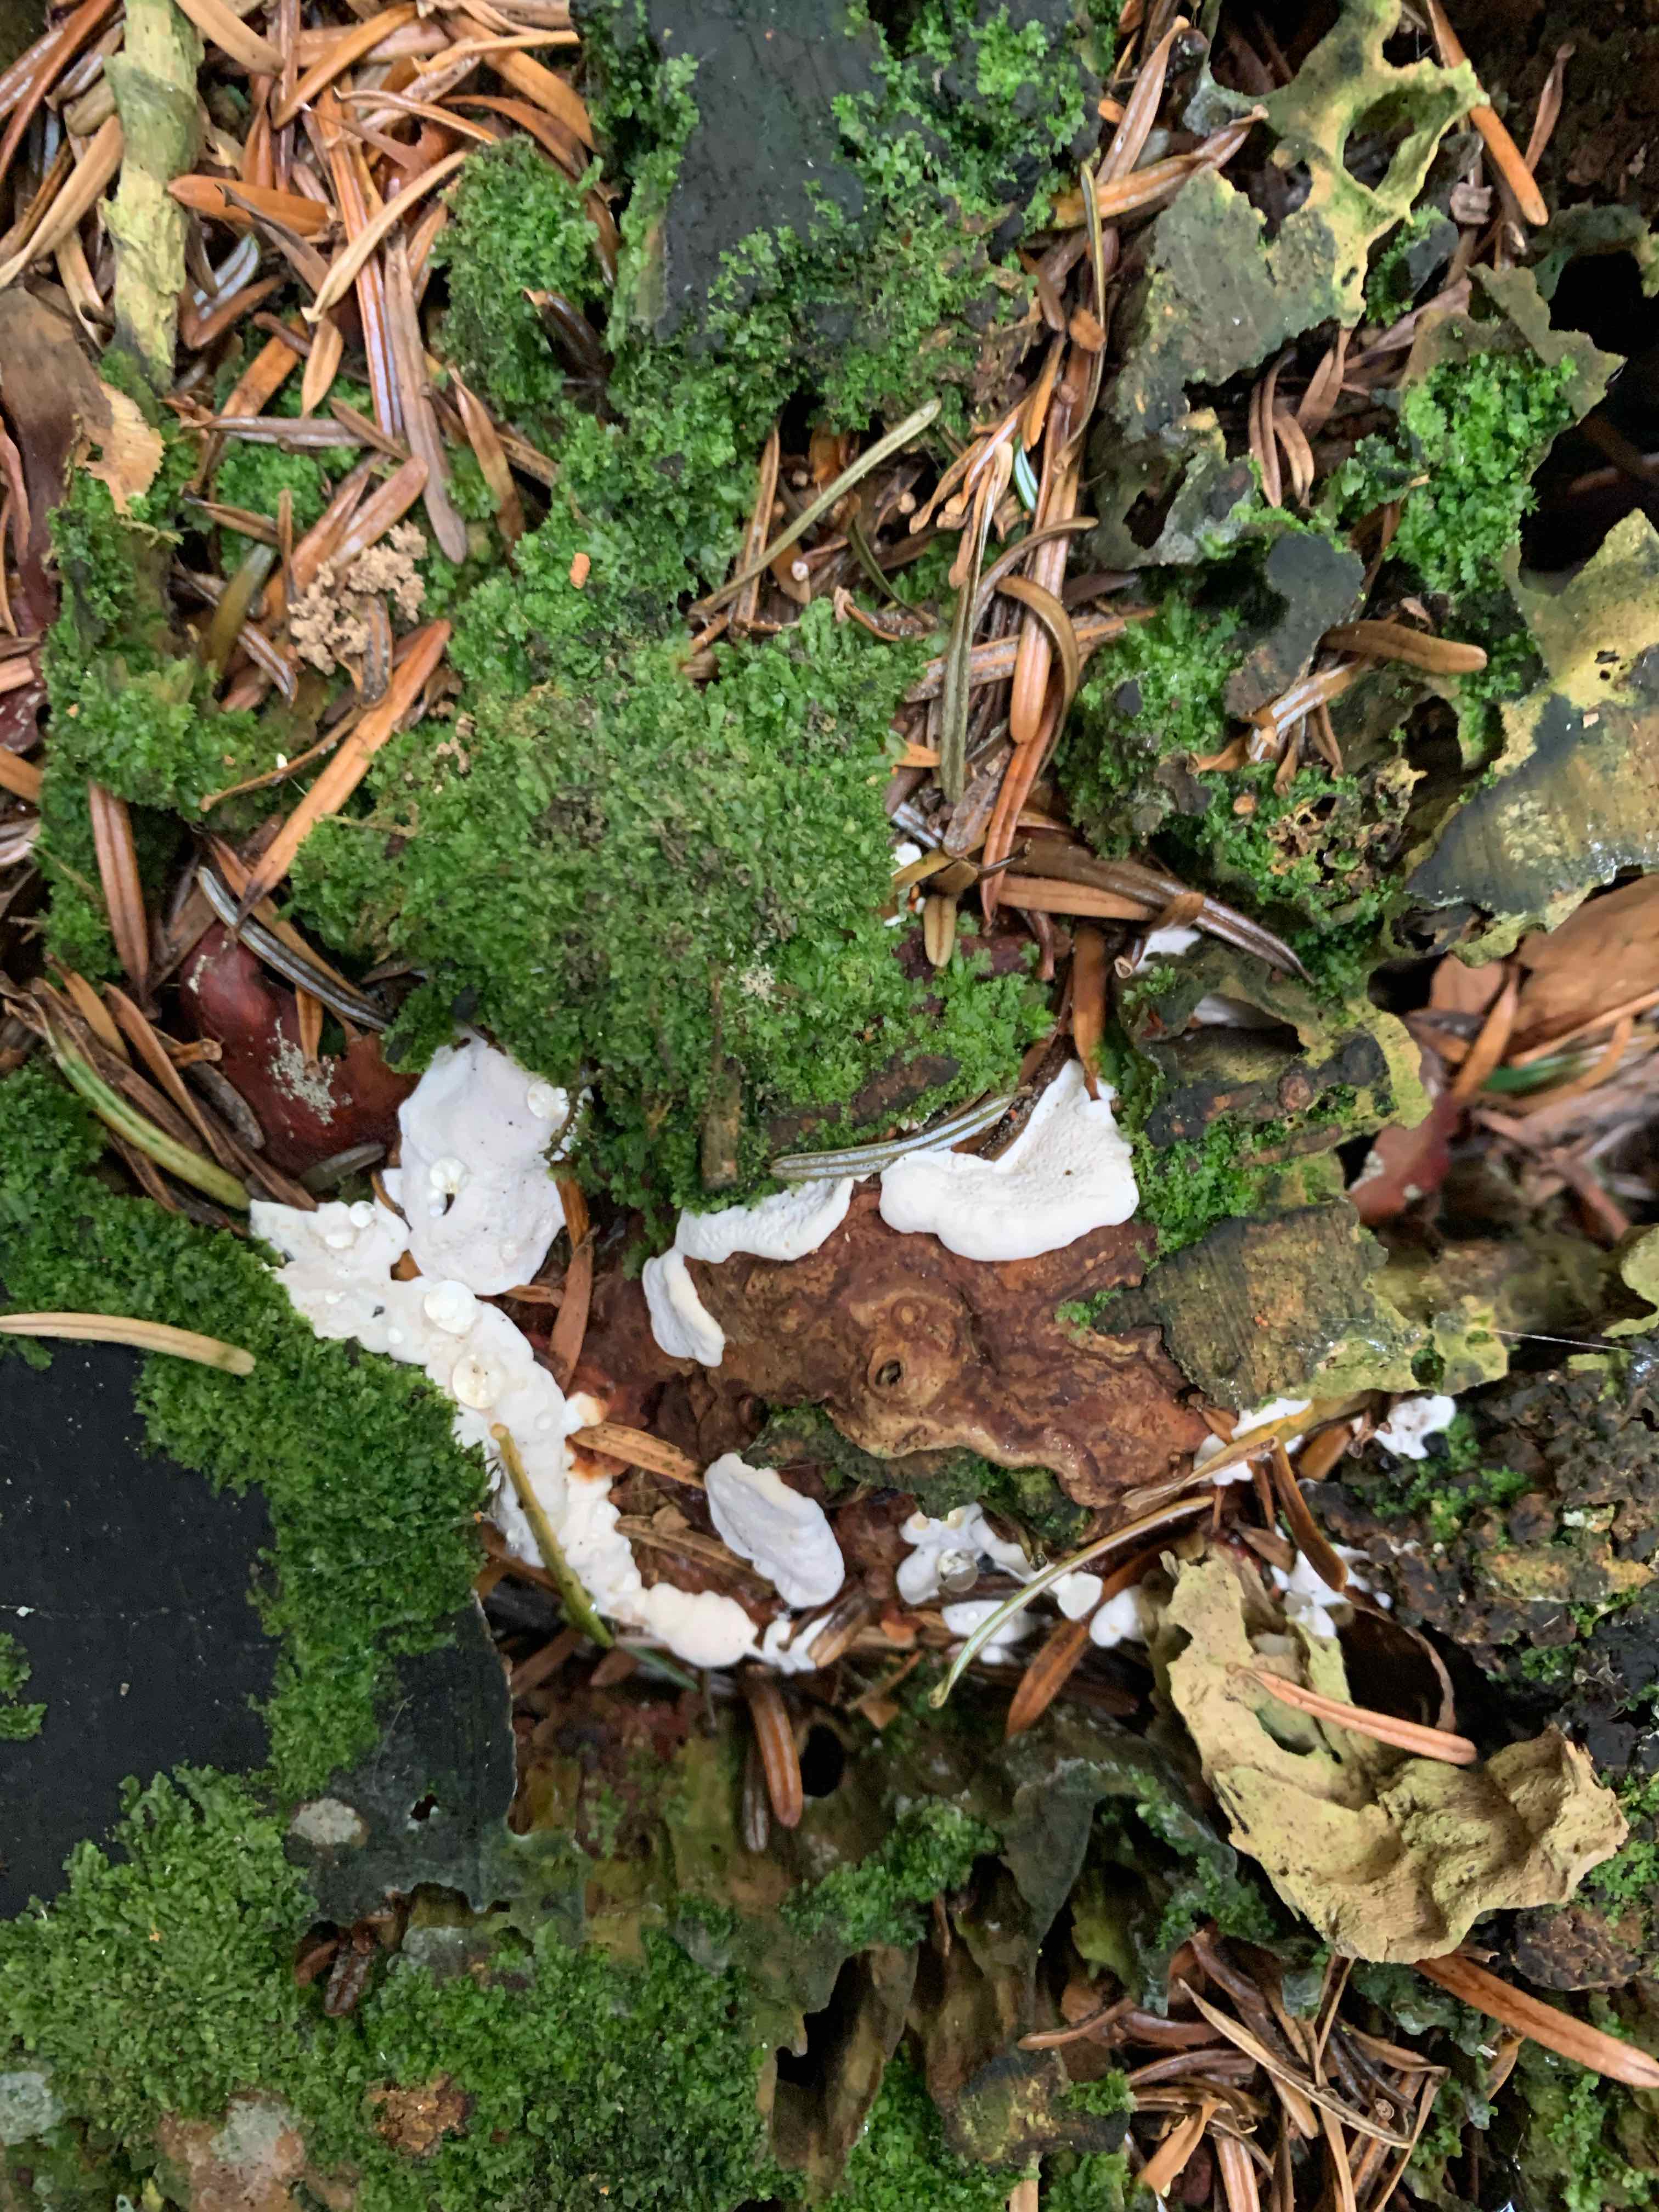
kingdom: Fungi
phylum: Basidiomycota
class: Agaricomycetes
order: Russulales
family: Bondarzewiaceae
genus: Heterobasidion
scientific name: Heterobasidion annosum
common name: almindelig rodfordærver
